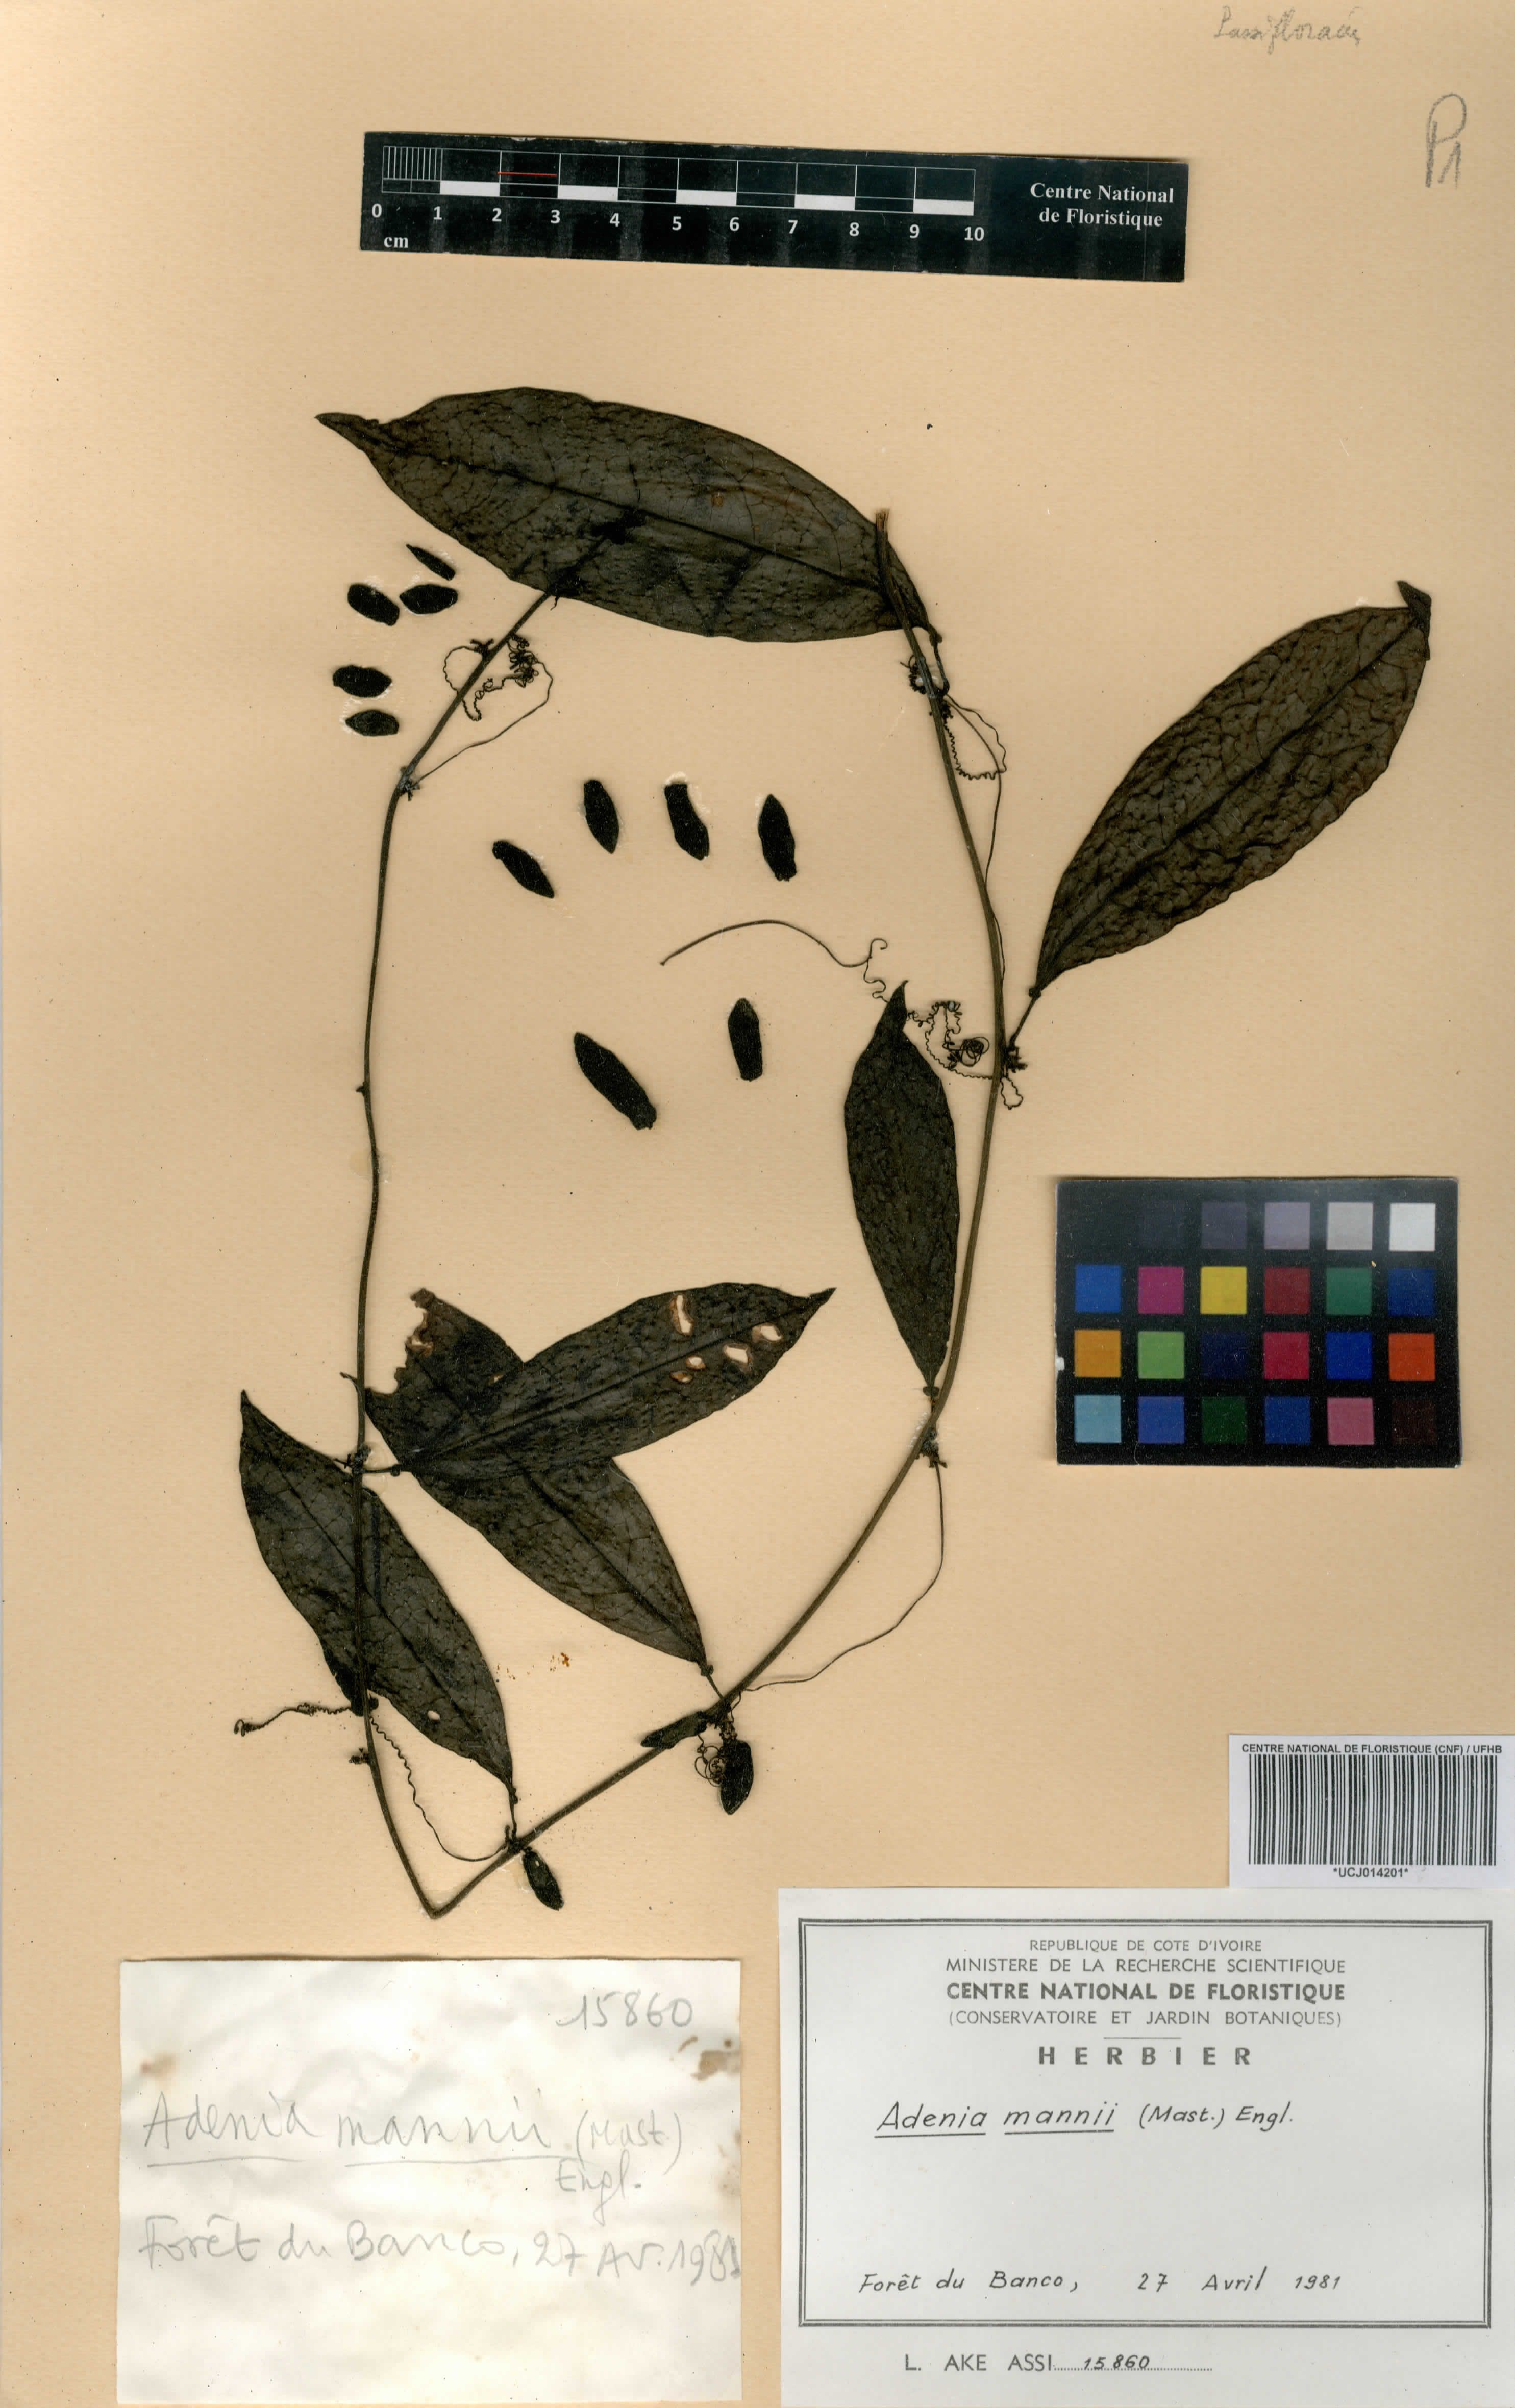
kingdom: Plantae
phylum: Tracheophyta
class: Magnoliopsida
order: Malpighiales
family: Passifloraceae
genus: Adenia
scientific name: Adenia mannii
